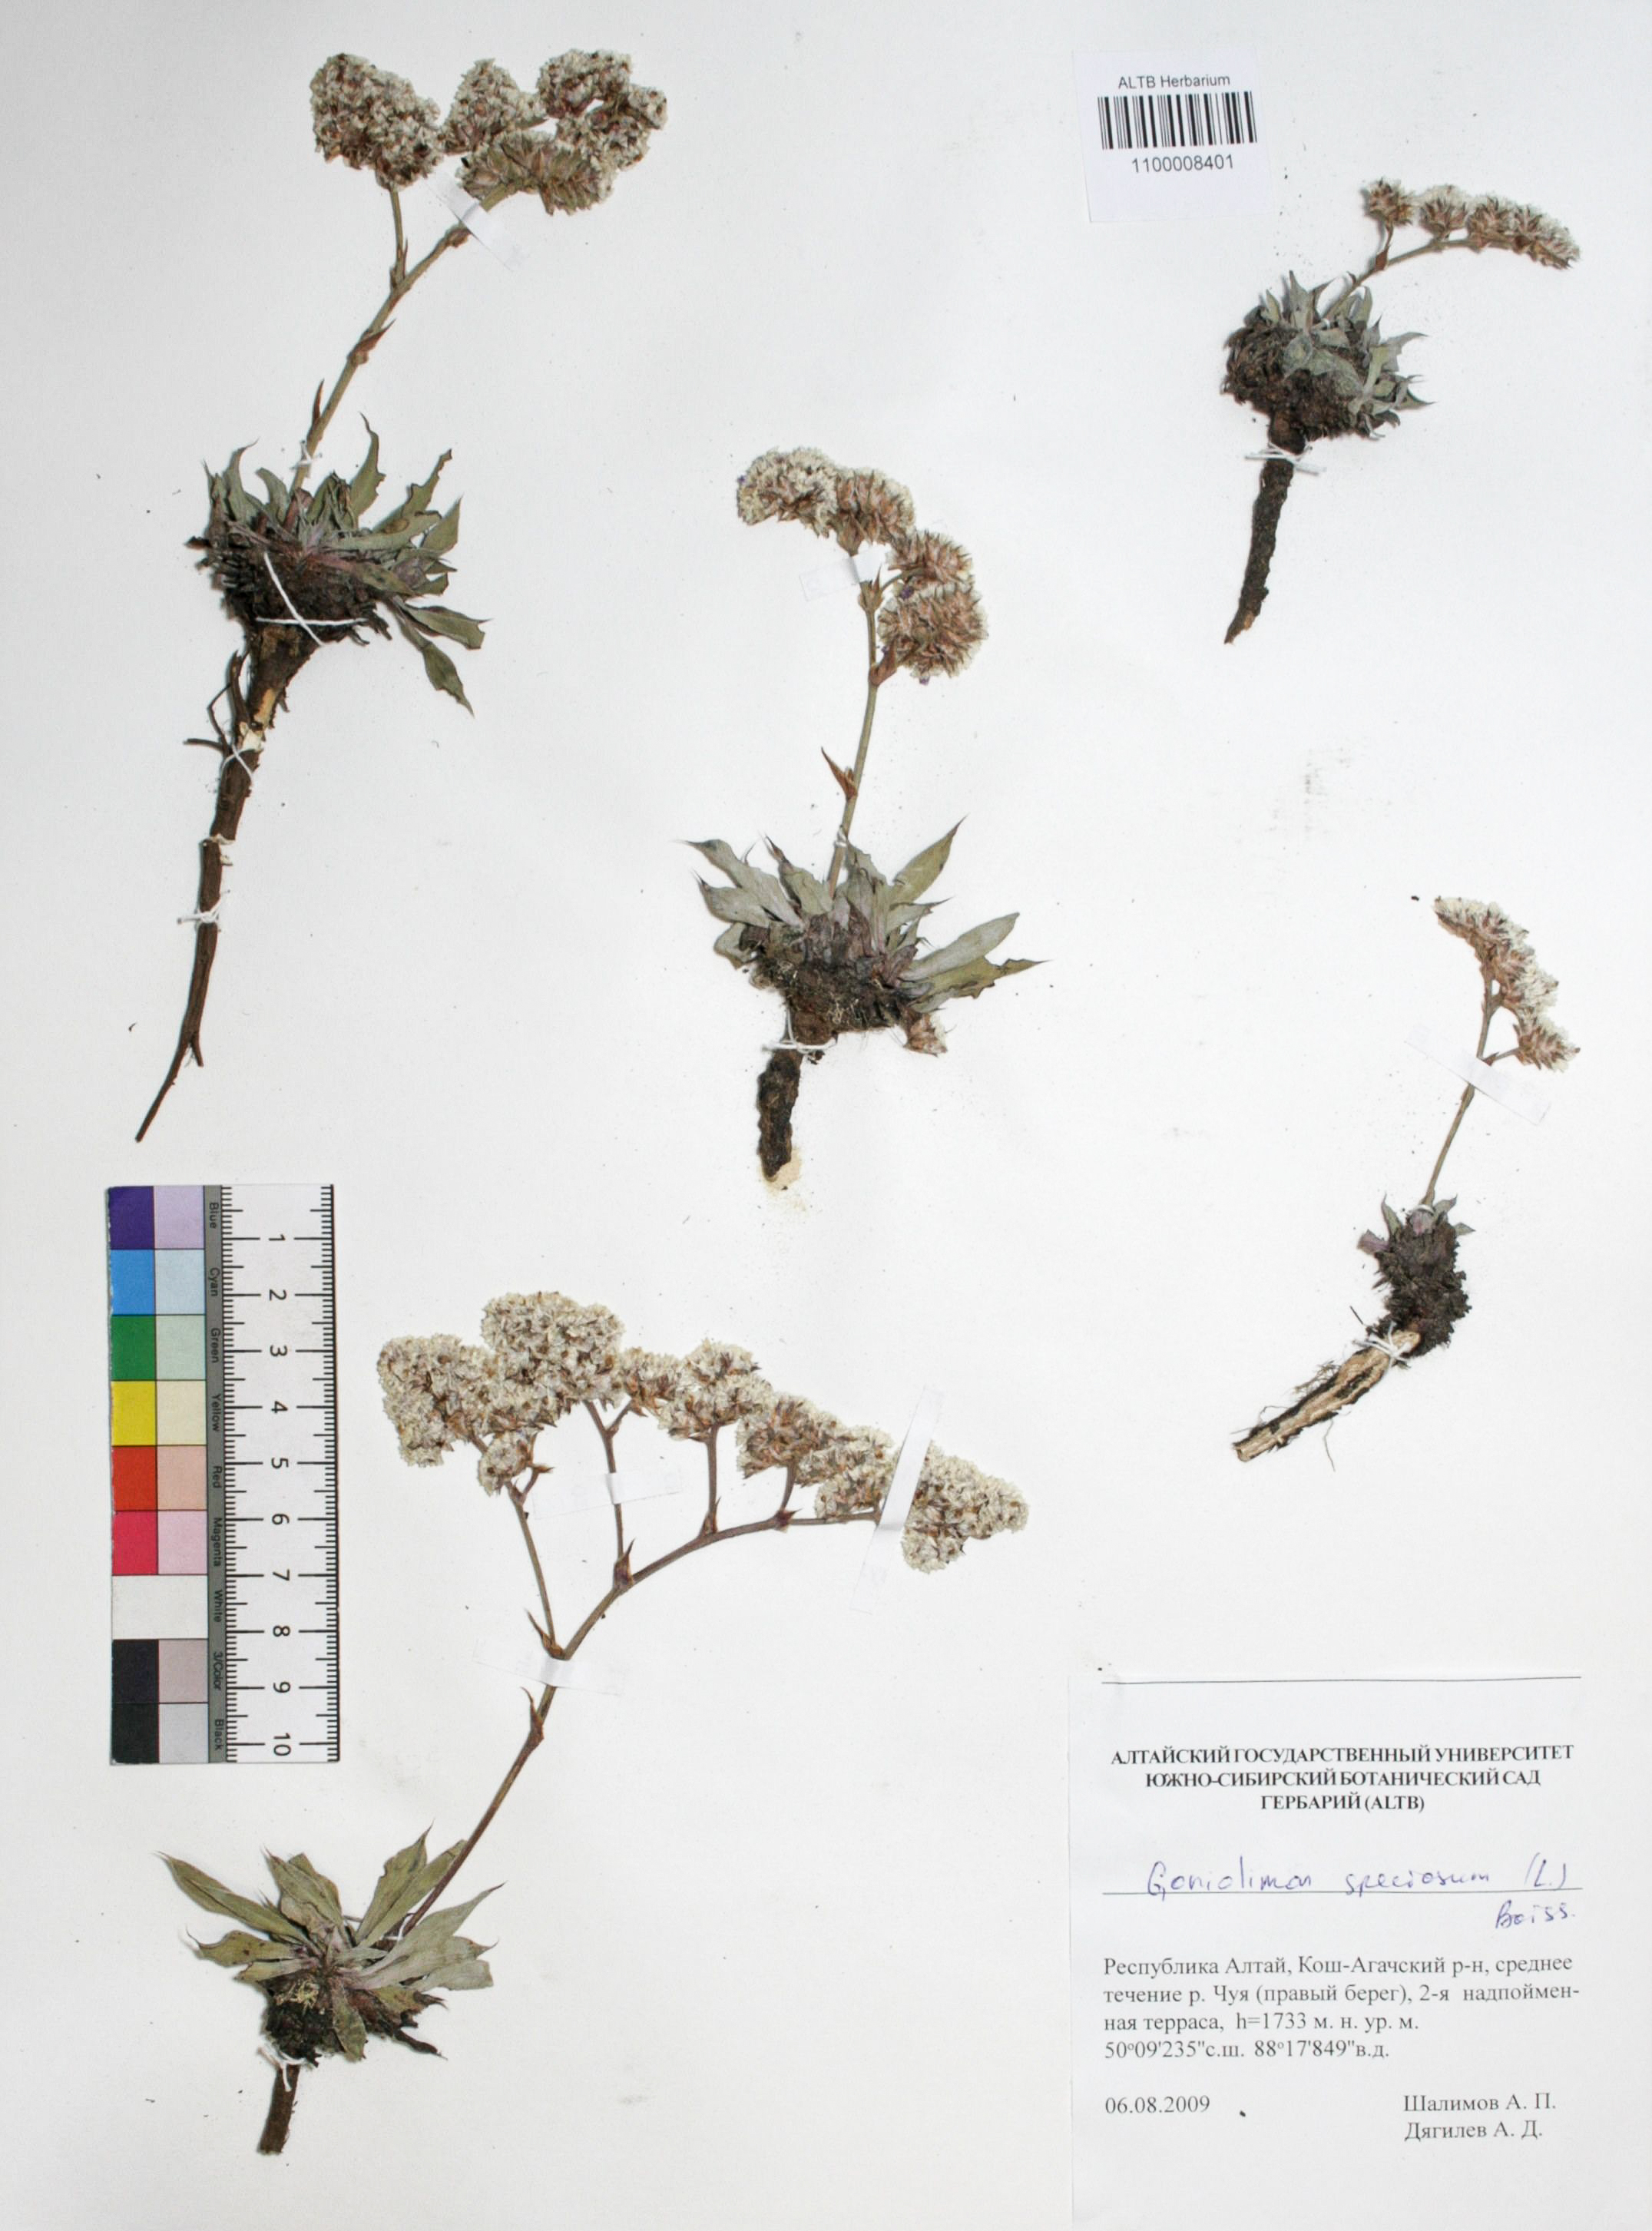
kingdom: Plantae
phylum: Tracheophyta
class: Magnoliopsida
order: Caryophyllales
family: Plumbaginaceae
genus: Goniolimon
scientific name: Goniolimon speciosum
